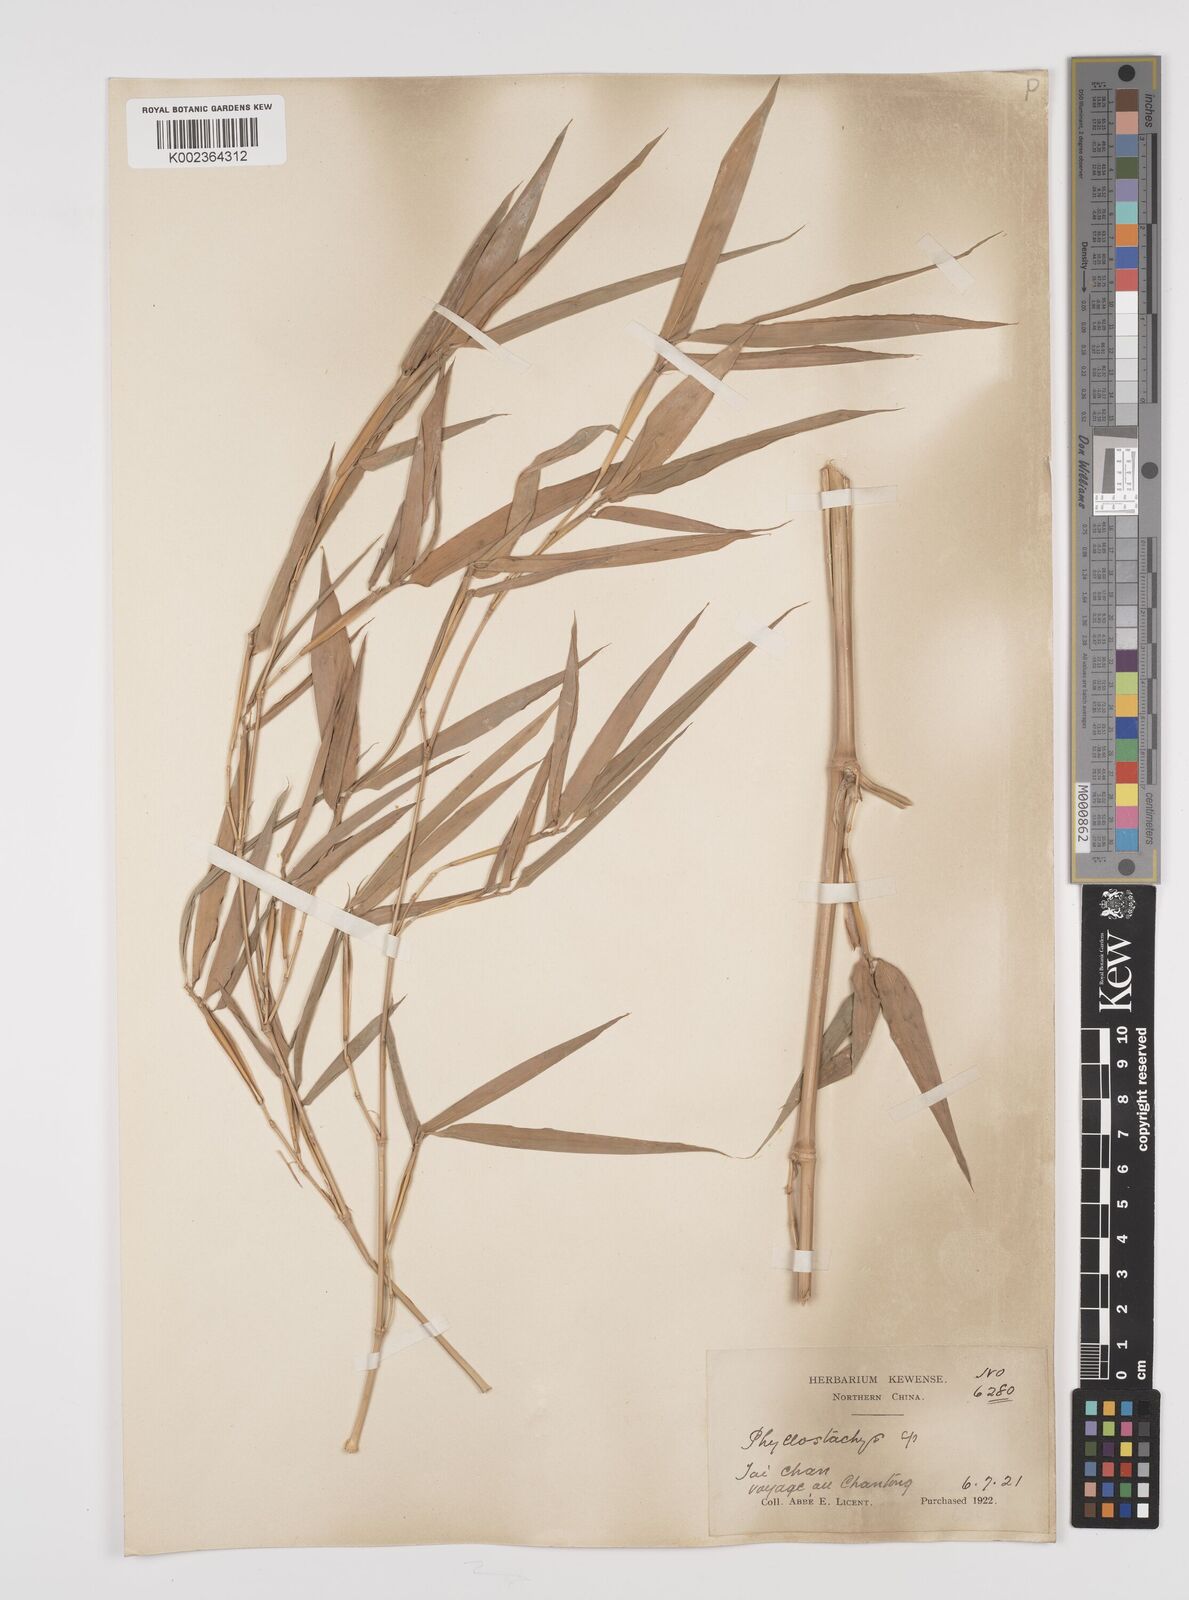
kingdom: Plantae
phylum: Tracheophyta
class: Liliopsida
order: Poales
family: Poaceae
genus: Phyllostachys
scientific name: Phyllostachys
